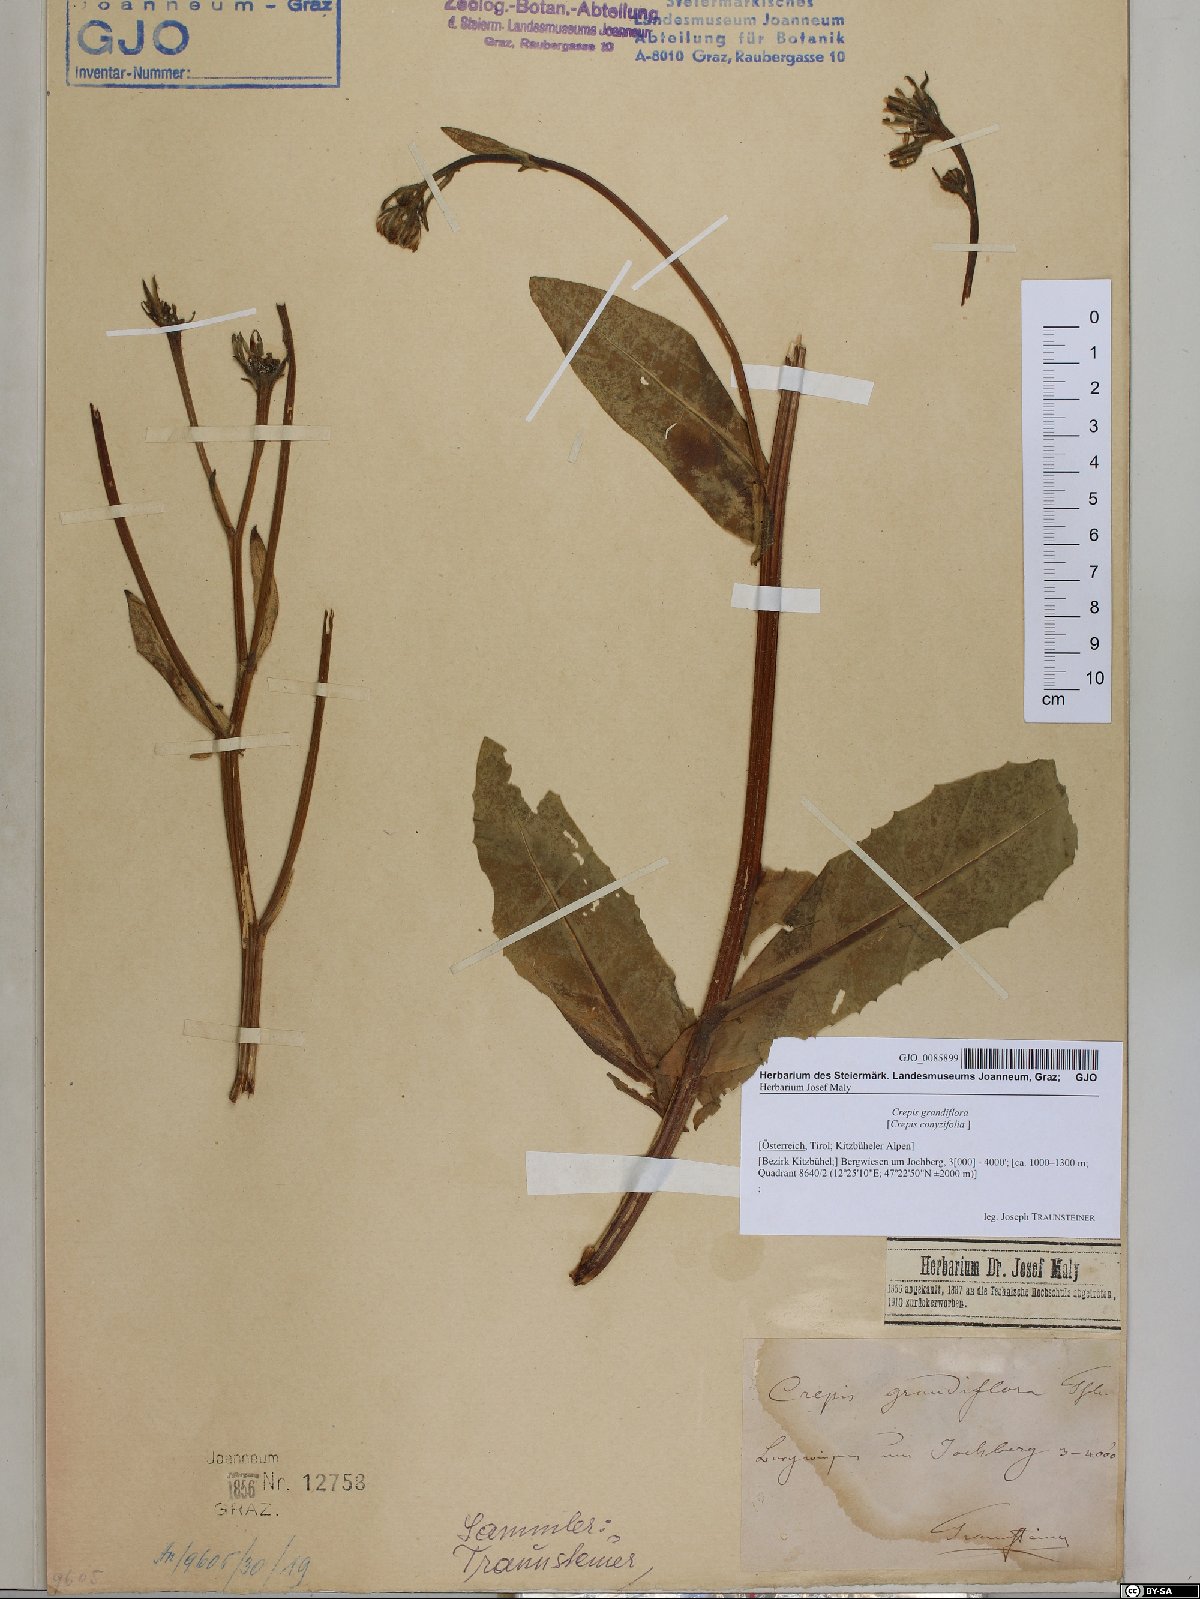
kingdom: Plantae
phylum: Tracheophyta
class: Magnoliopsida
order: Asterales
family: Asteraceae
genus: Crepis
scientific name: Crepis pyrenaica
